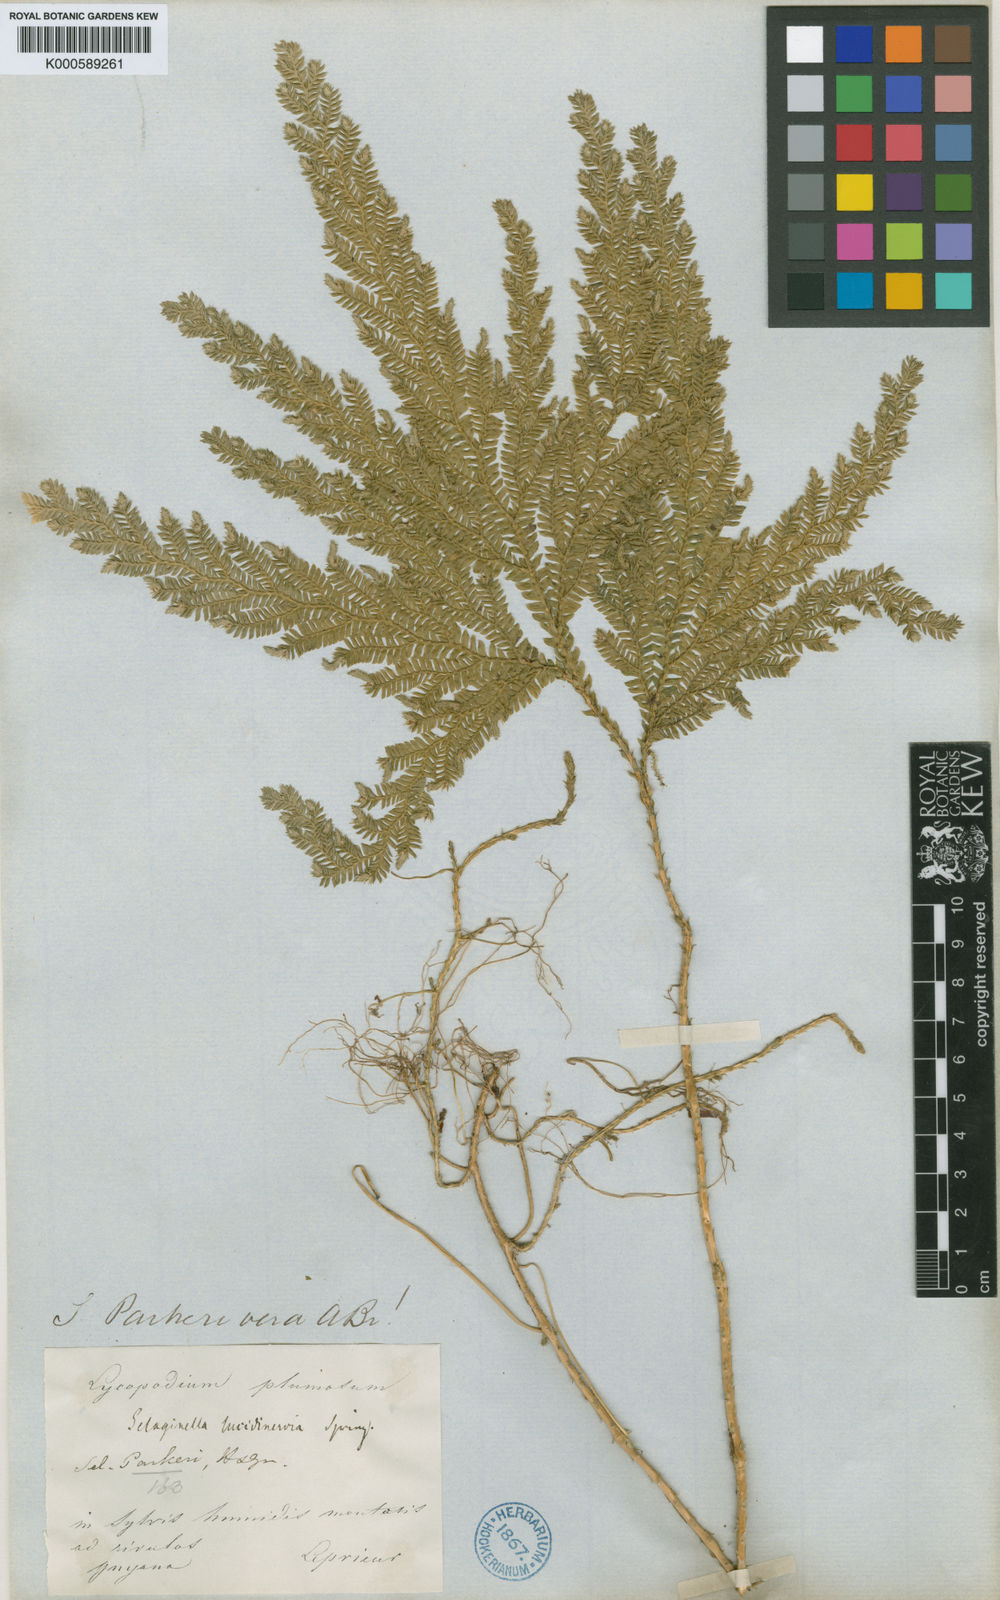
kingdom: Plantae
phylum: Tracheophyta
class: Lycopodiopsida
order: Selaginellales
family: Selaginellaceae
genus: Selaginella
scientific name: Selaginella parkeri
